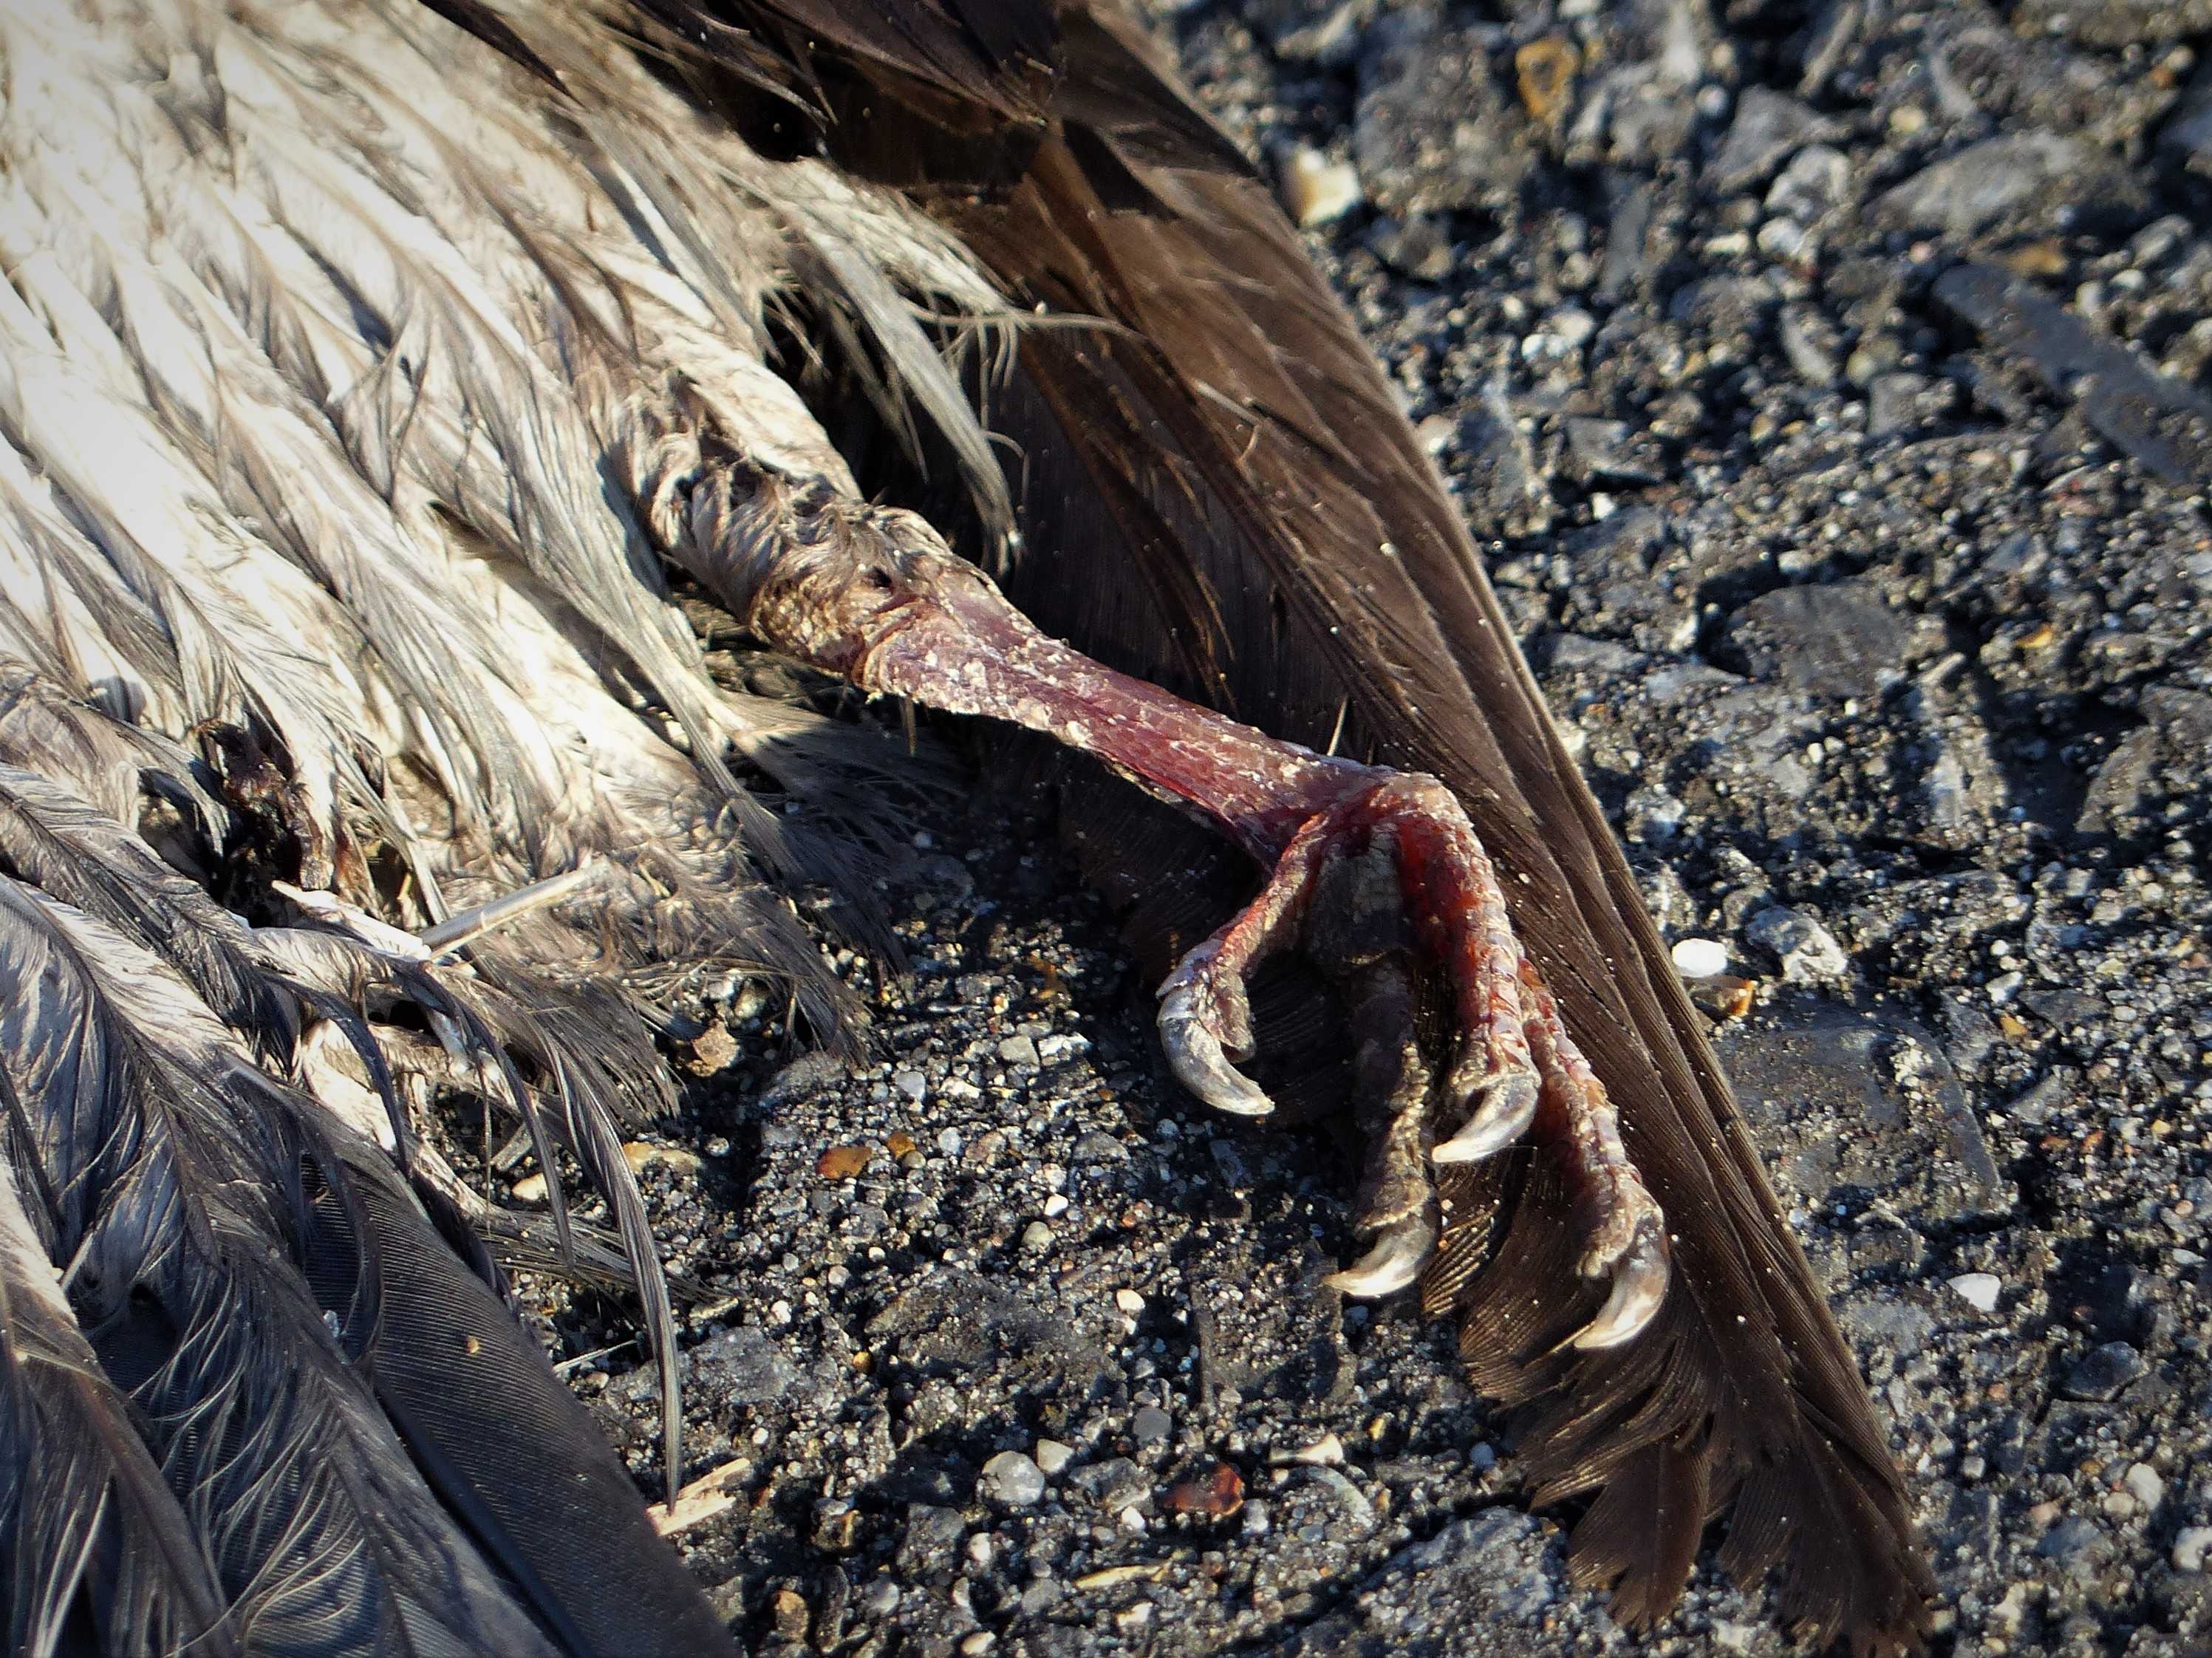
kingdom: Animalia
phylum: Chordata
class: Aves
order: Columbiformes
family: Columbidae
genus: Columba
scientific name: Columba livia
